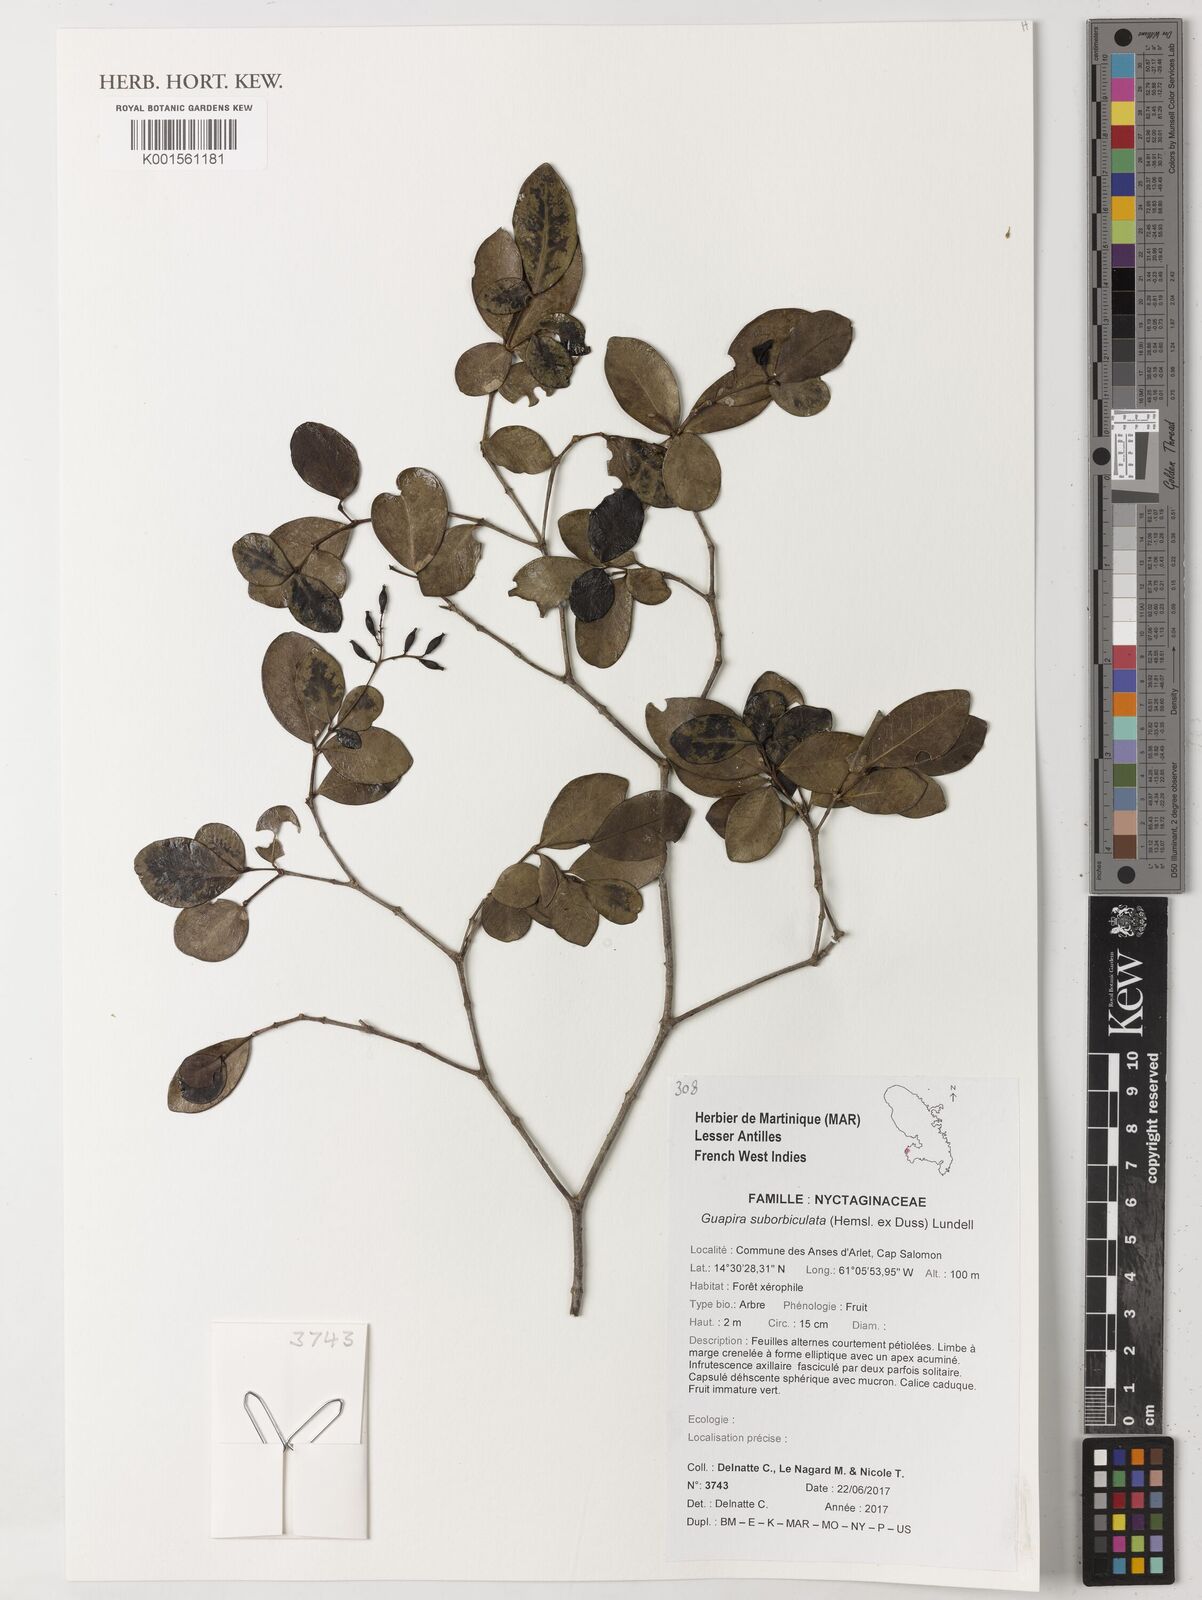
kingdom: Plantae
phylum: Tracheophyta
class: Magnoliopsida
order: Caryophyllales
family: Nyctaginaceae
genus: Guapira
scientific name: Guapira suborbiculata
